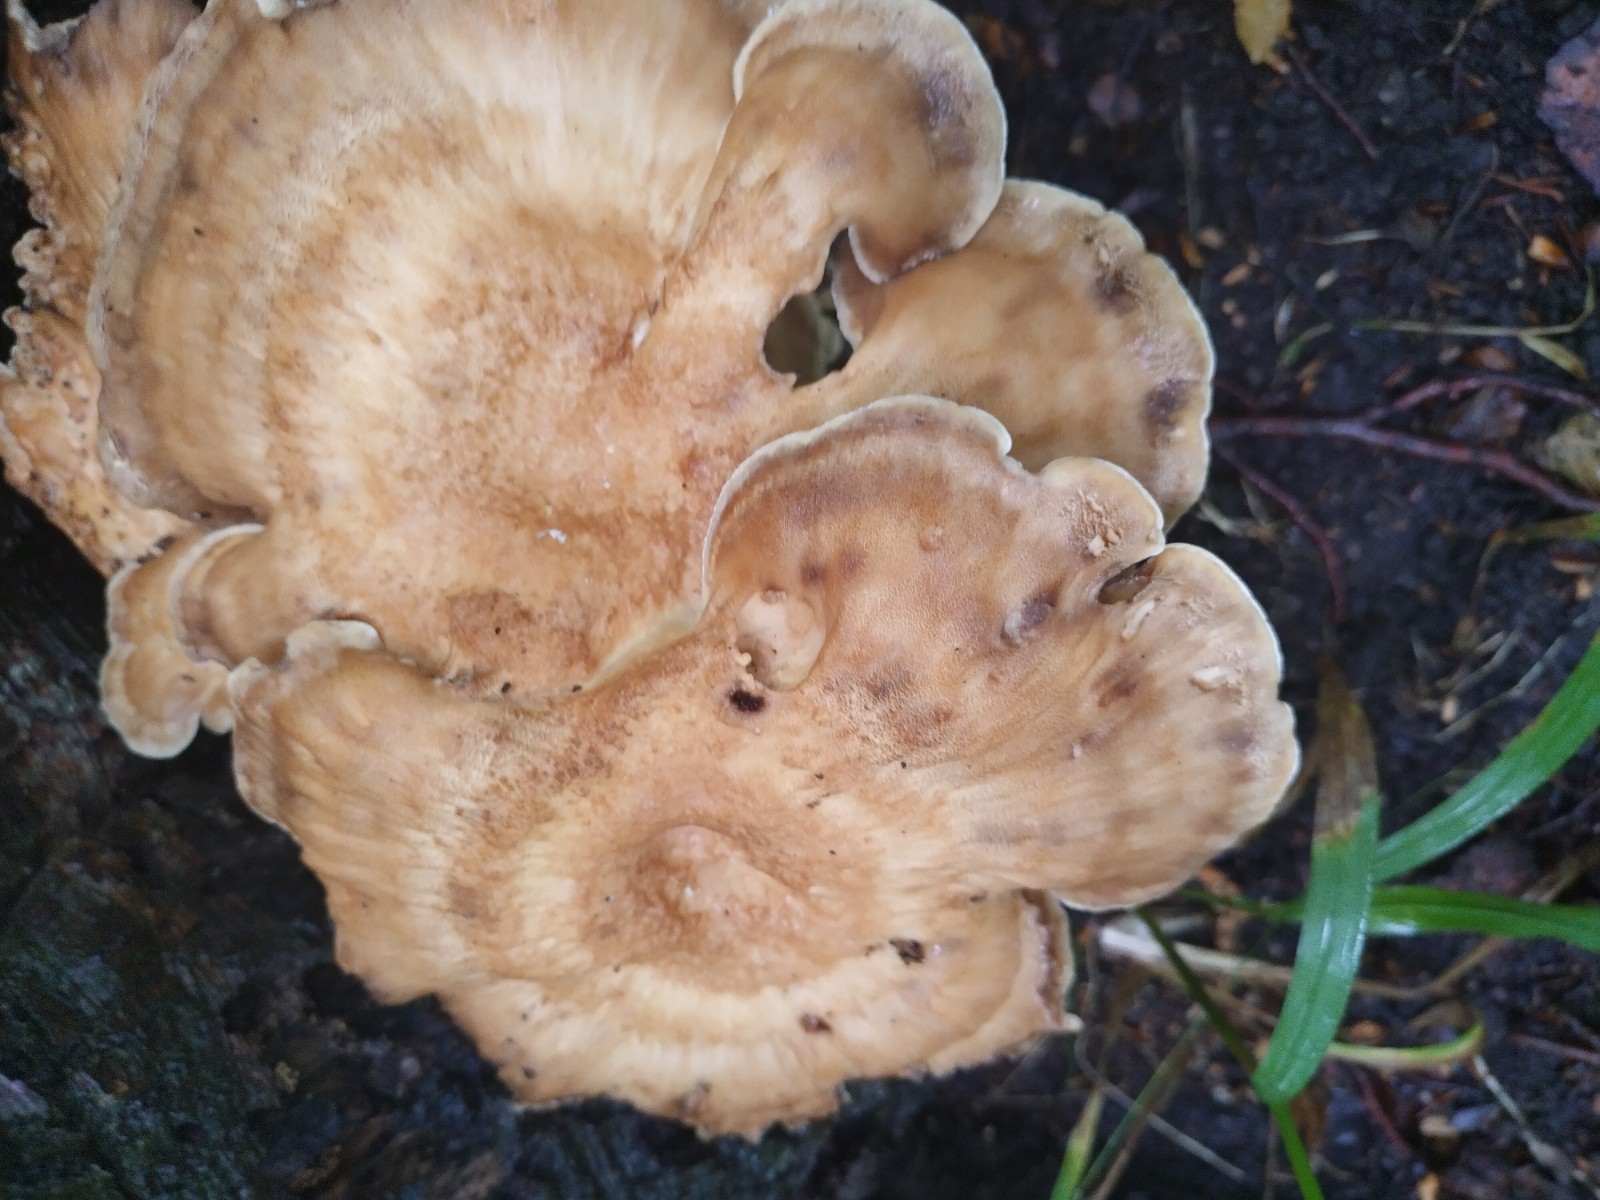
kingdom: Fungi
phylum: Basidiomycota
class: Agaricomycetes
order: Polyporales
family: Meripilaceae
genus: Meripilus
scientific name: Meripilus giganteus
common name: kæmpeporesvamp
